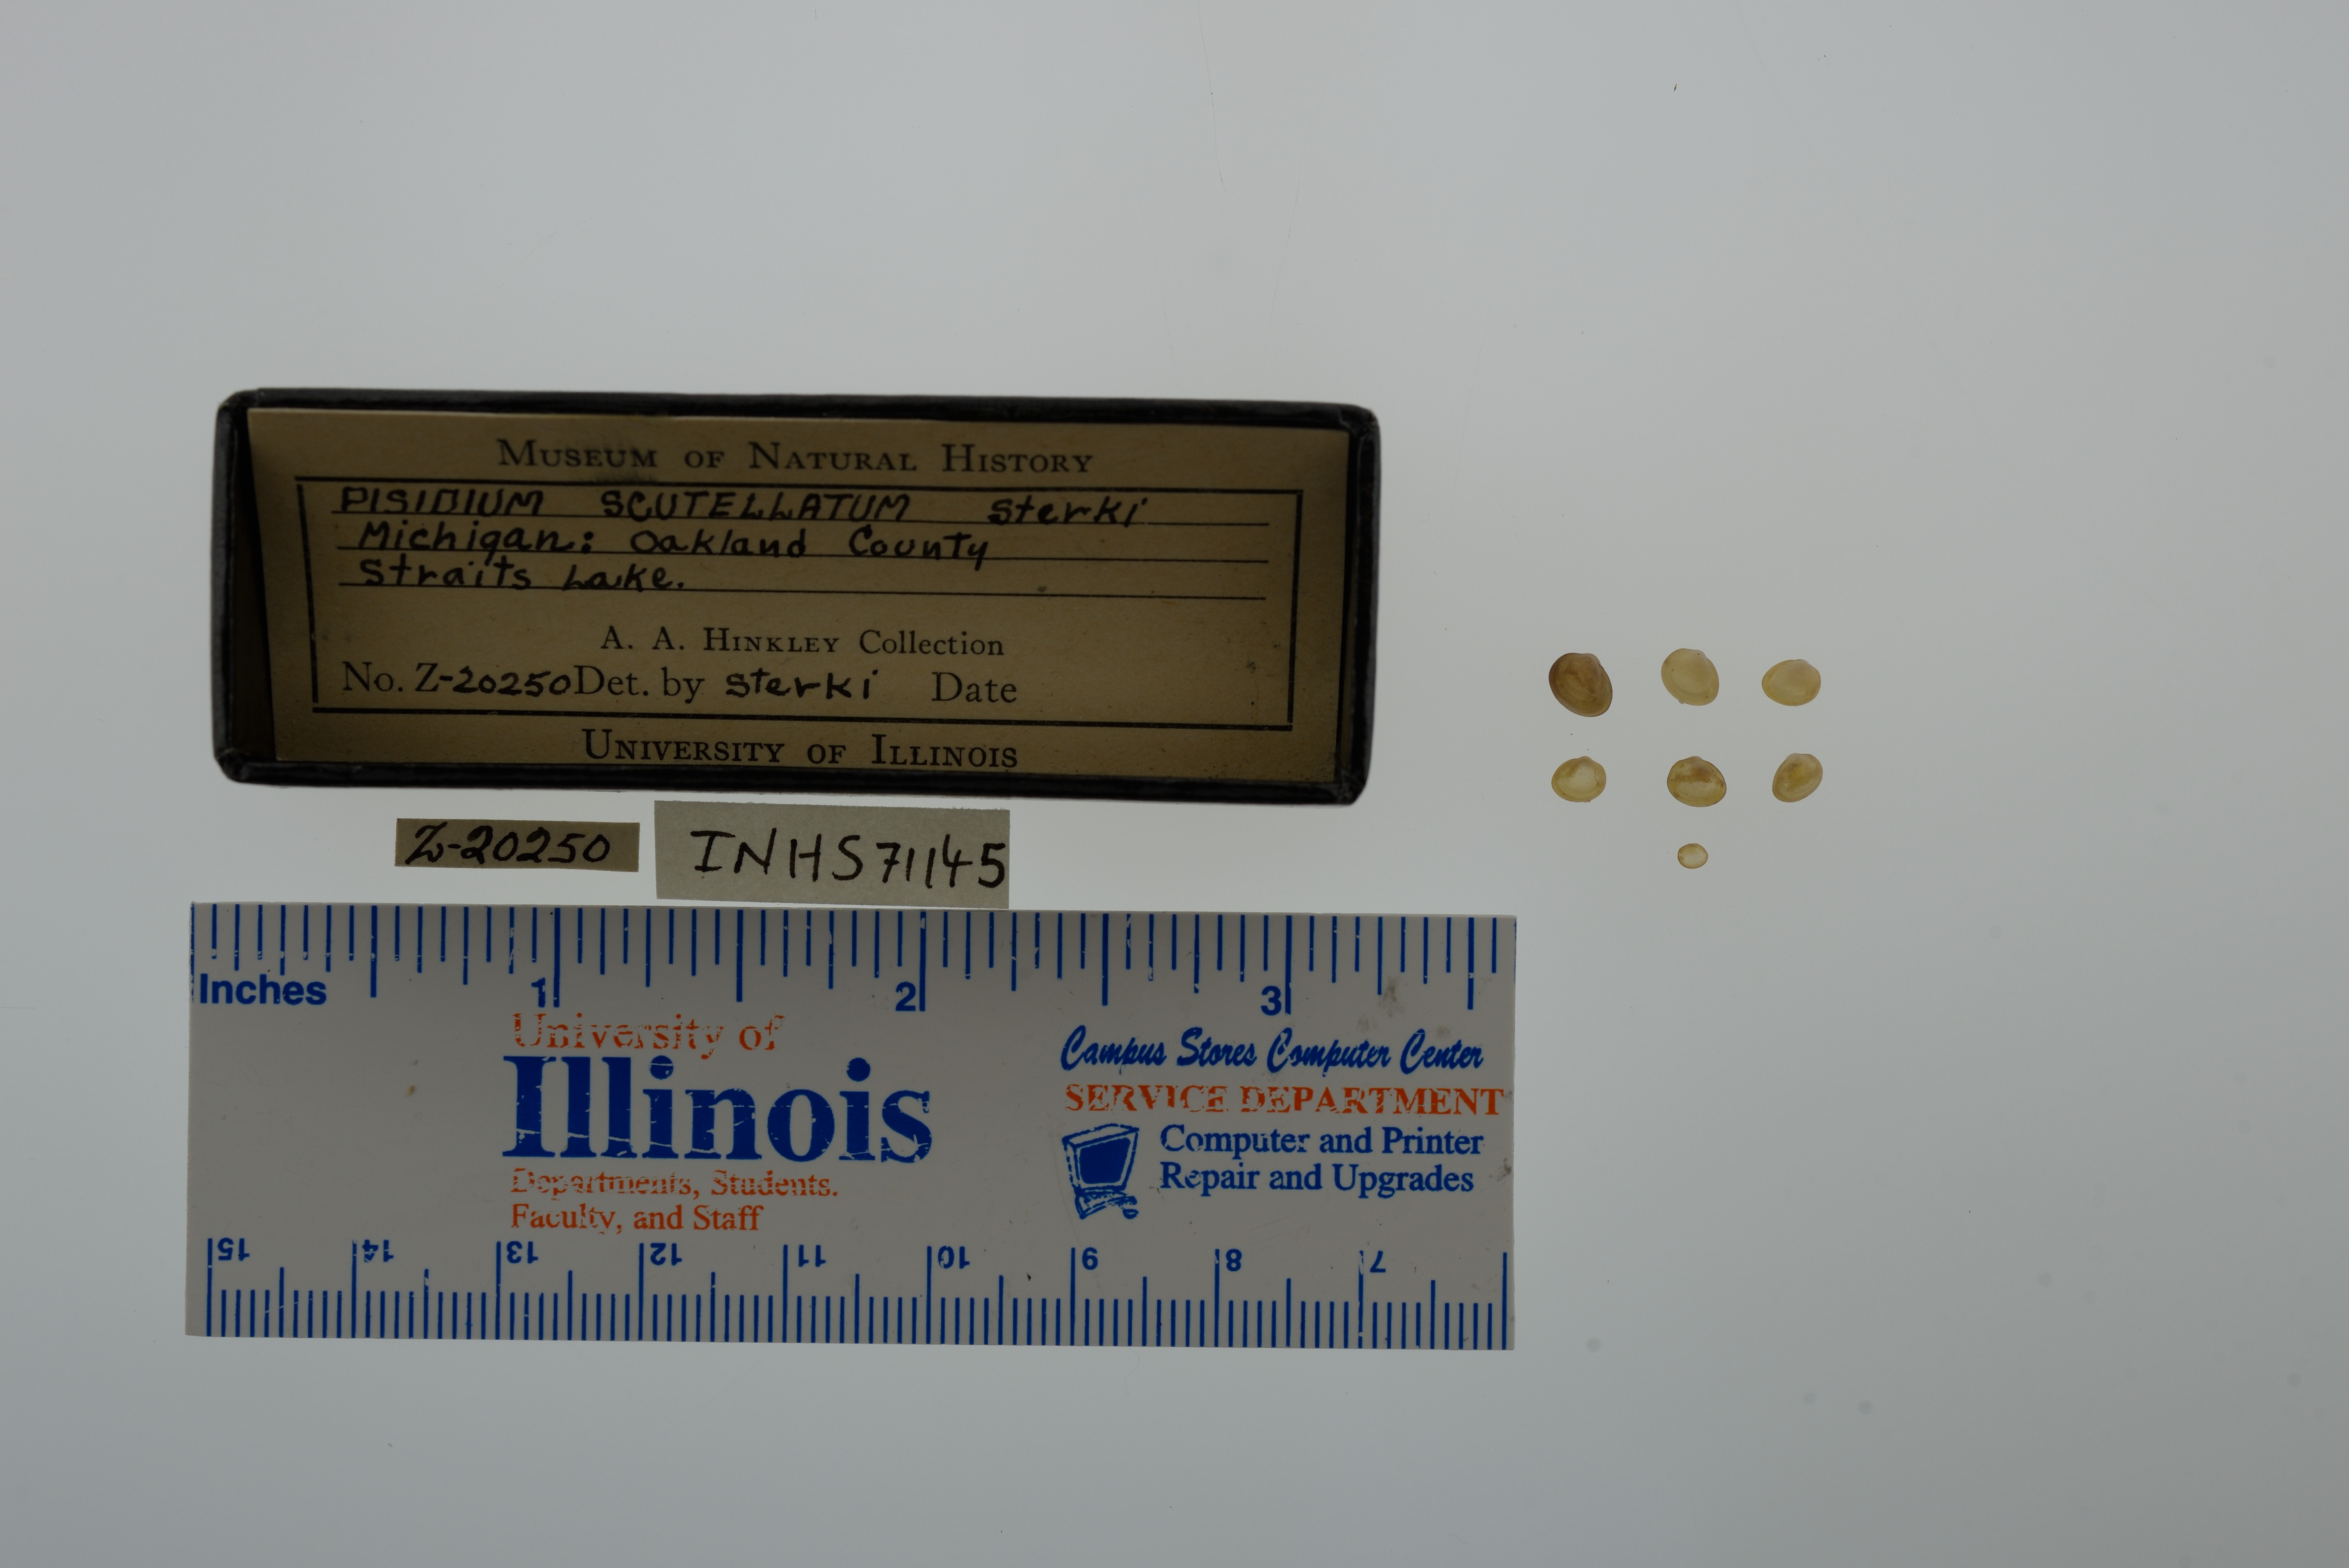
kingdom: Animalia
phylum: Mollusca
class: Bivalvia
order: Sphaeriida
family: Sphaeriidae
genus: Euglesa
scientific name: Euglesa lilljeborgii
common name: Lilljeborg peaclam
